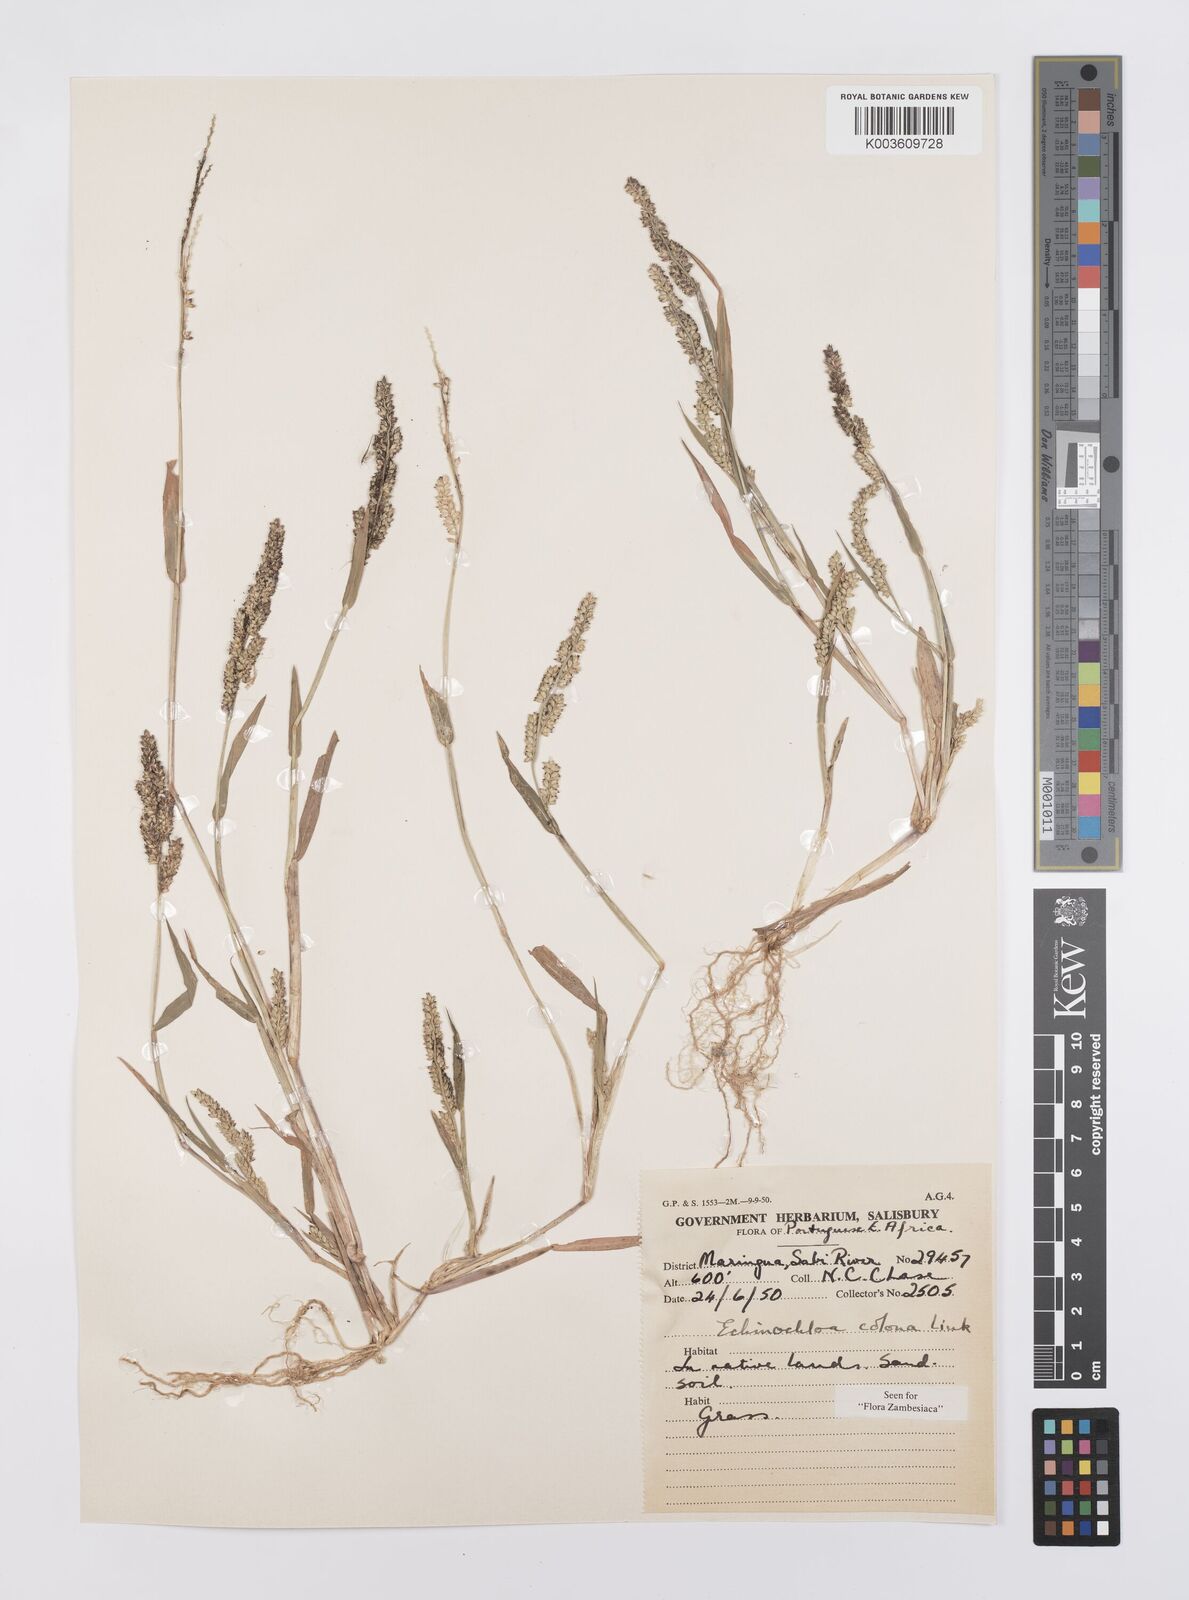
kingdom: Plantae
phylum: Tracheophyta
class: Liliopsida
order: Poales
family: Poaceae
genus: Echinochloa
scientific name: Echinochloa colonum
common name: Jungle rice
